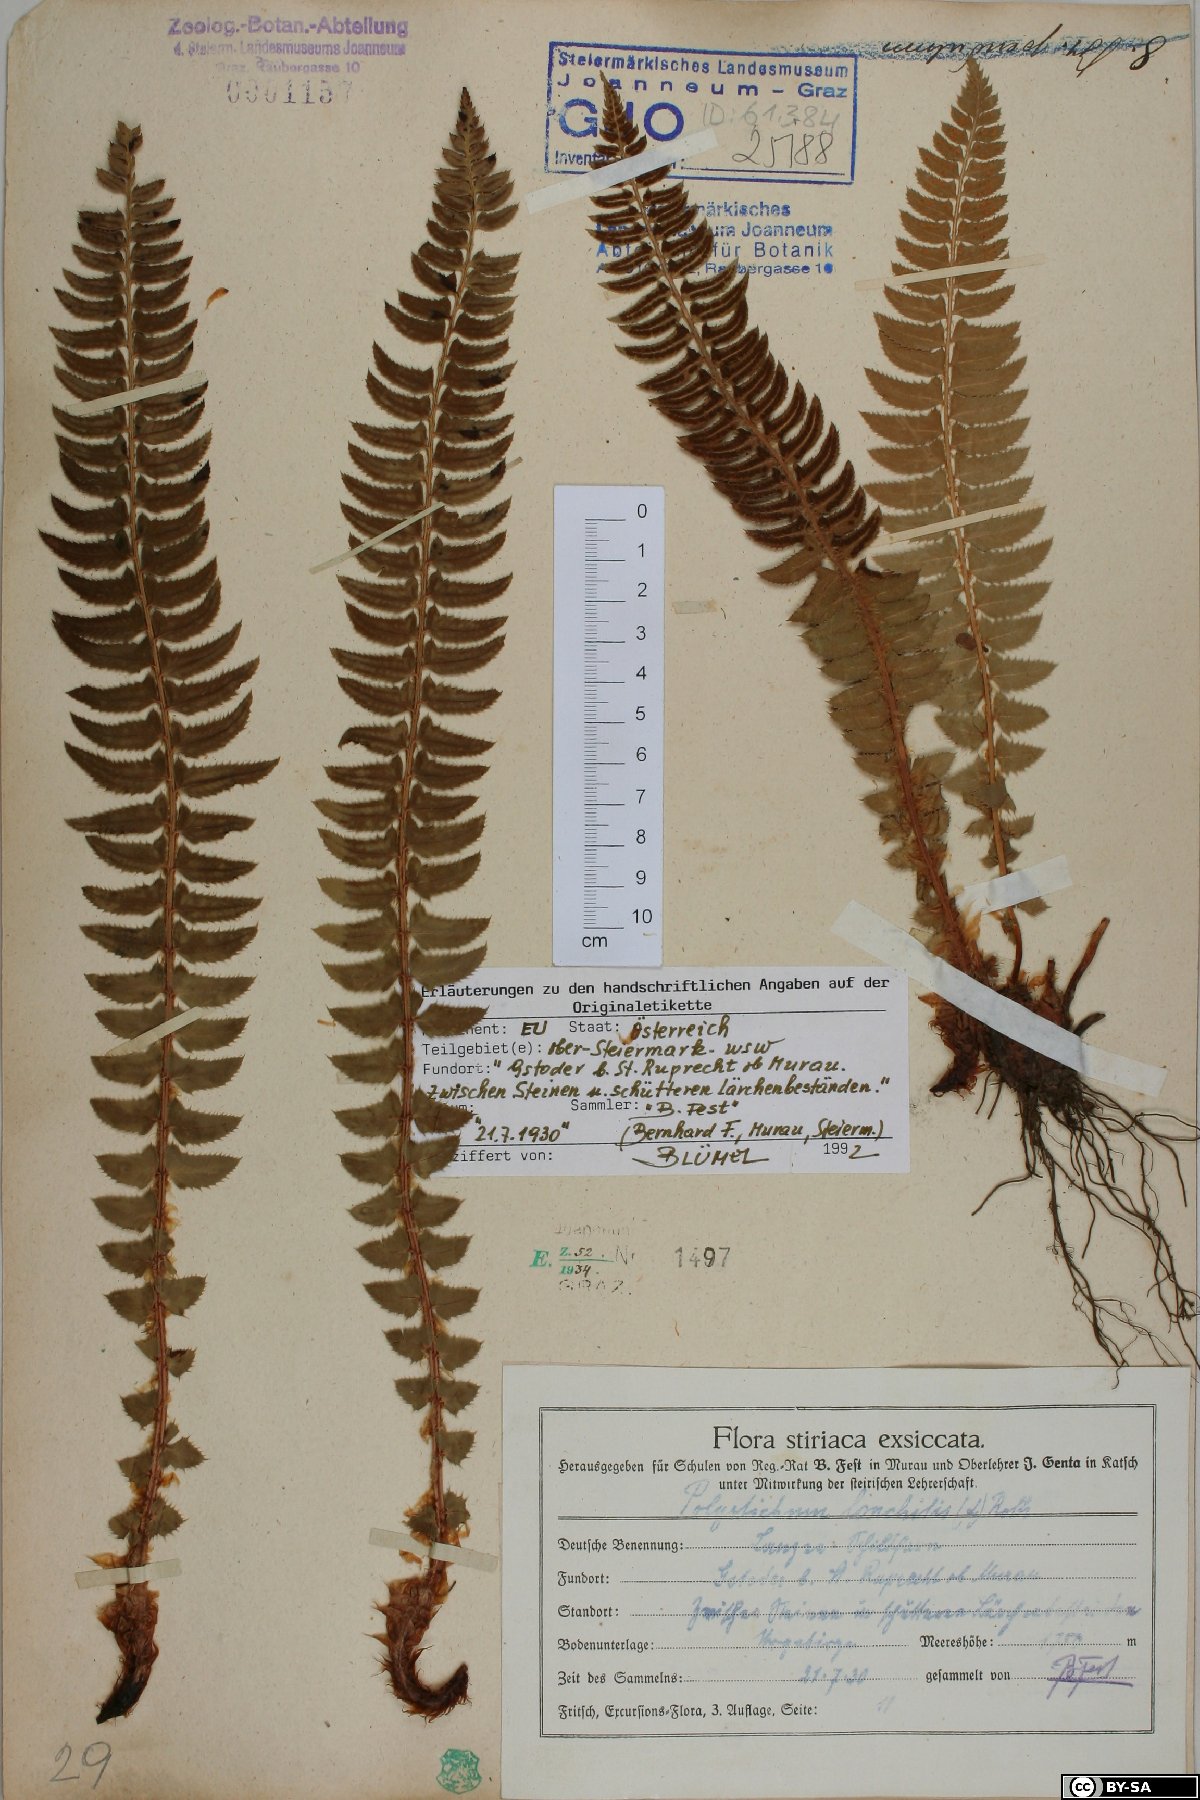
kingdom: Plantae
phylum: Tracheophyta
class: Polypodiopsida
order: Polypodiales
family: Dryopteridaceae
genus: Polystichum
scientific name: Polystichum lonchitis
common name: Holly fern
